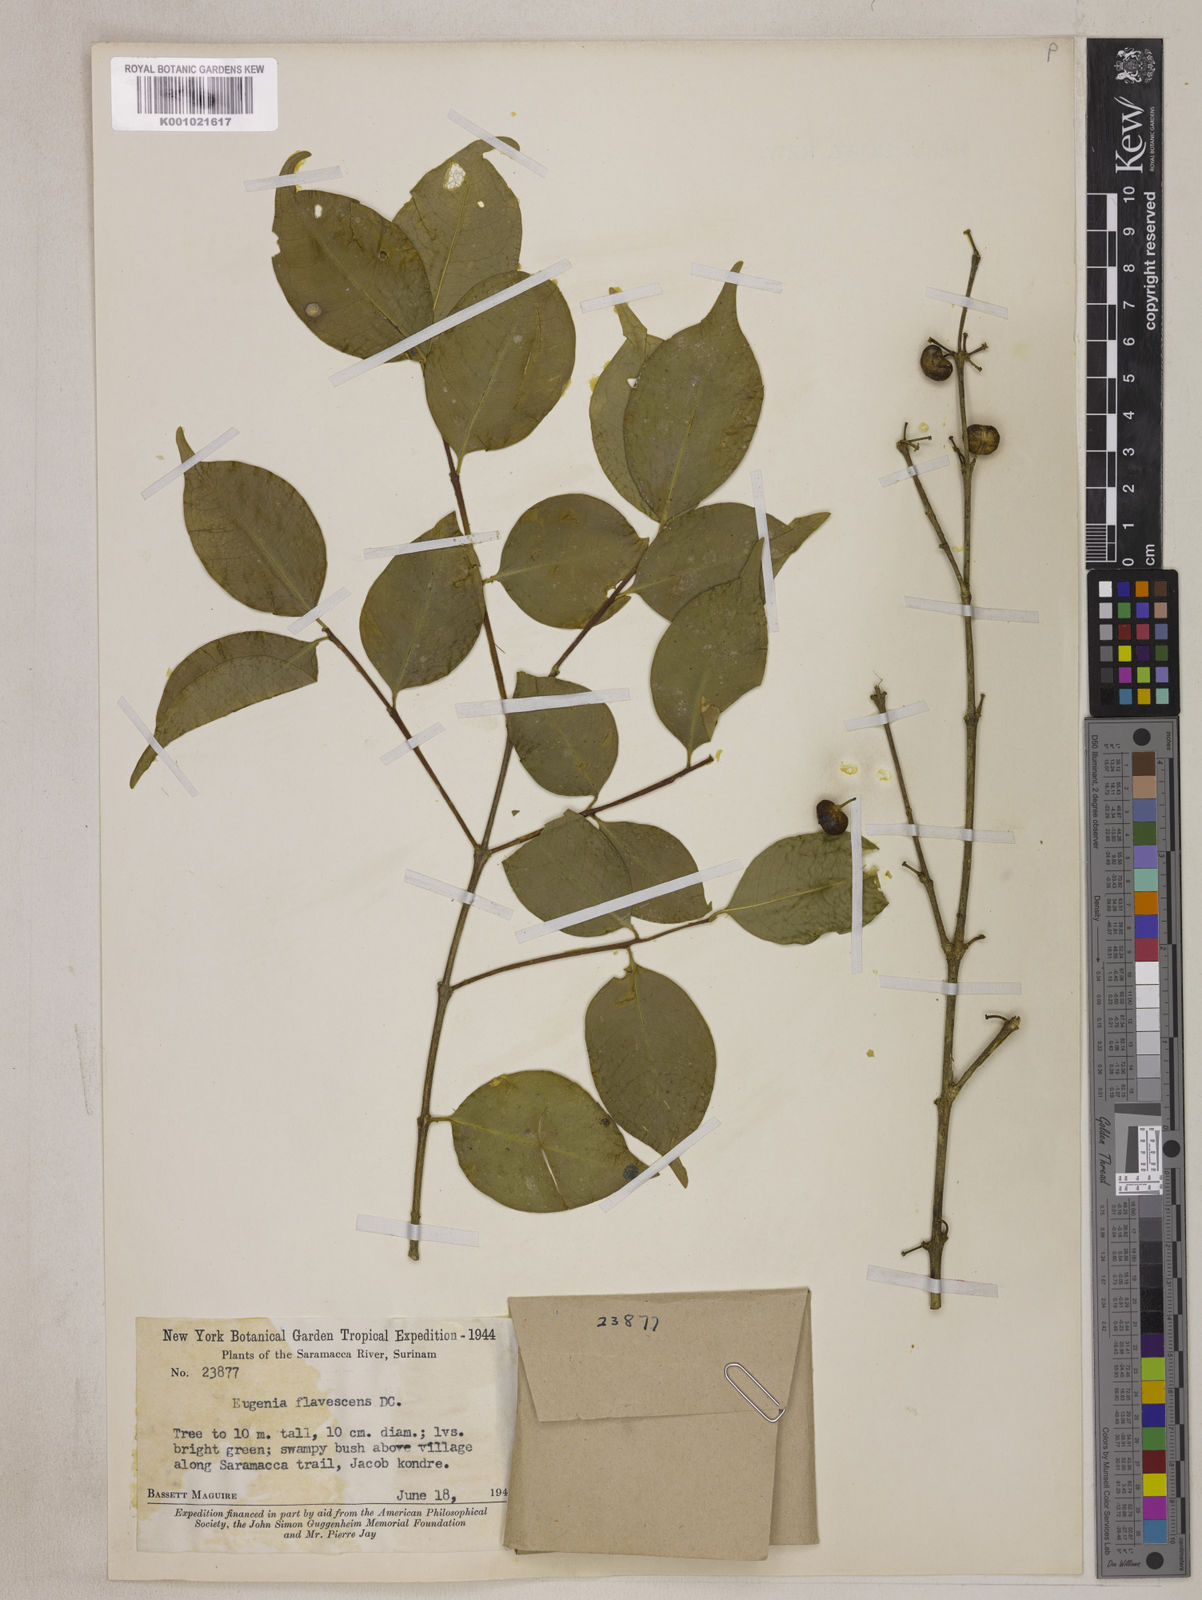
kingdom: Plantae
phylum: Tracheophyta
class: Magnoliopsida
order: Myrtales
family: Myrtaceae
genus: Eugenia
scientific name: Eugenia flavescens
